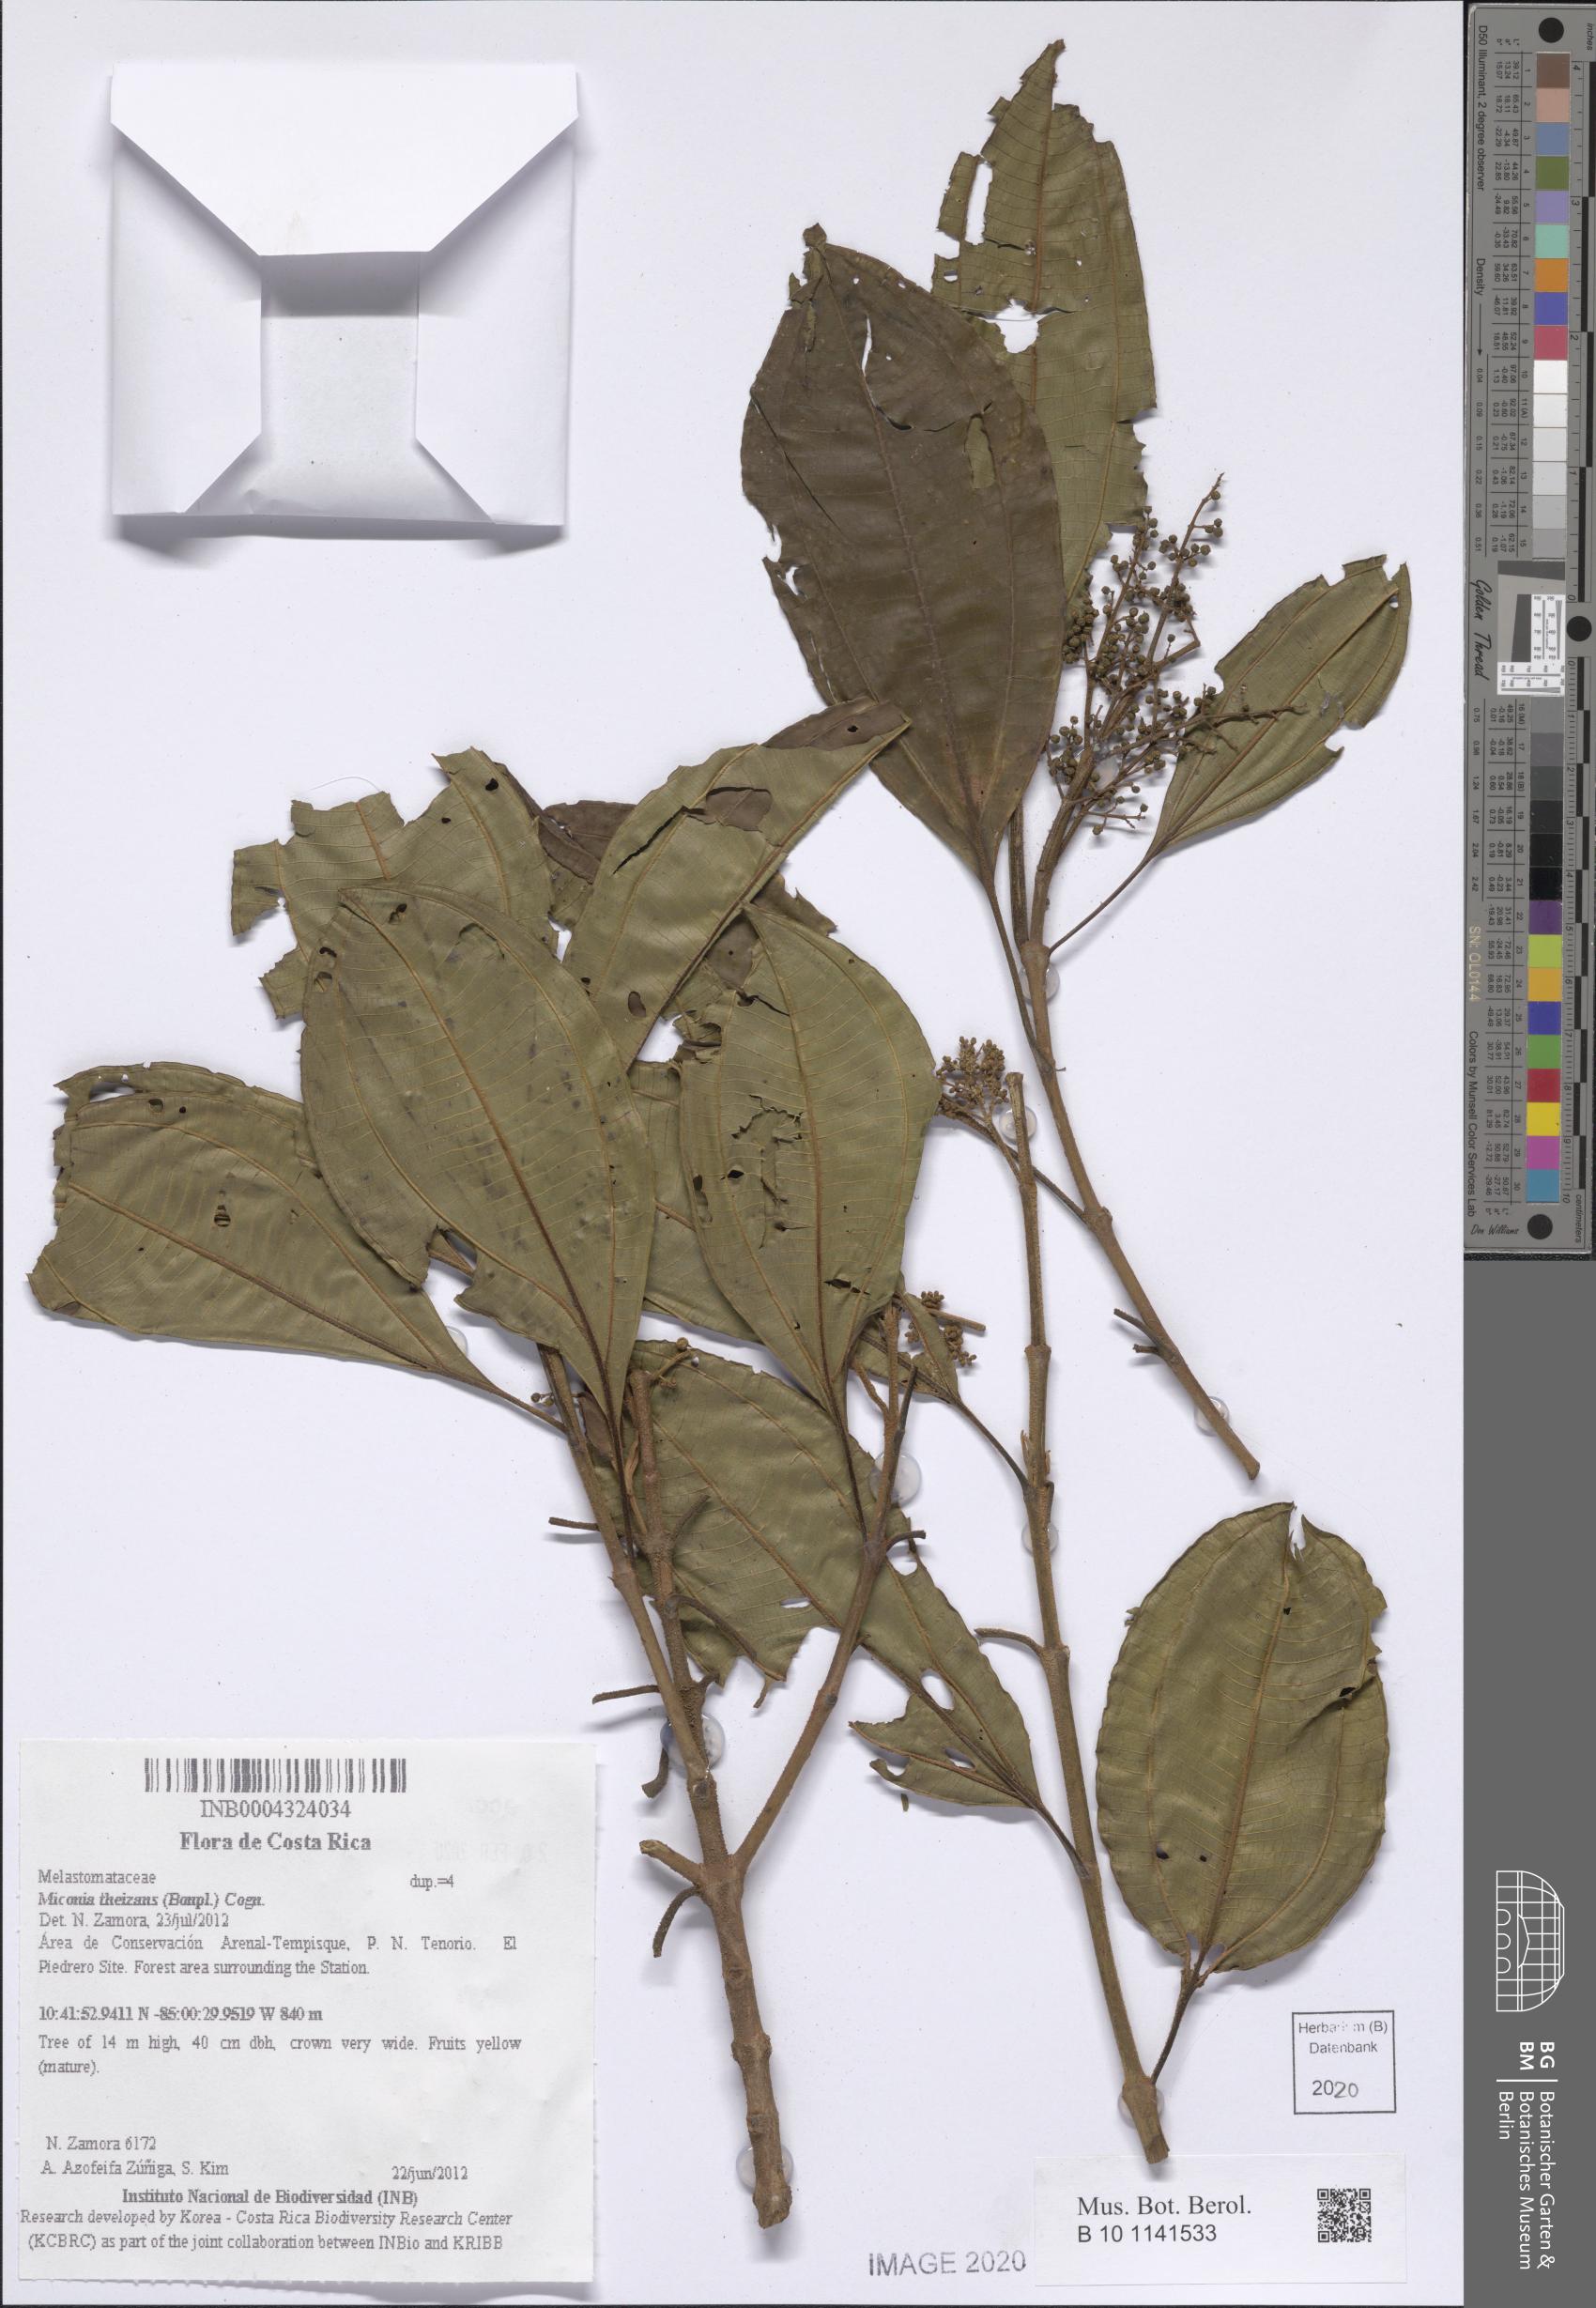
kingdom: Plantae
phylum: Tracheophyta
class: Magnoliopsida
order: Myrtales
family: Melastomataceae
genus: Miconia
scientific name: Miconia theizans
